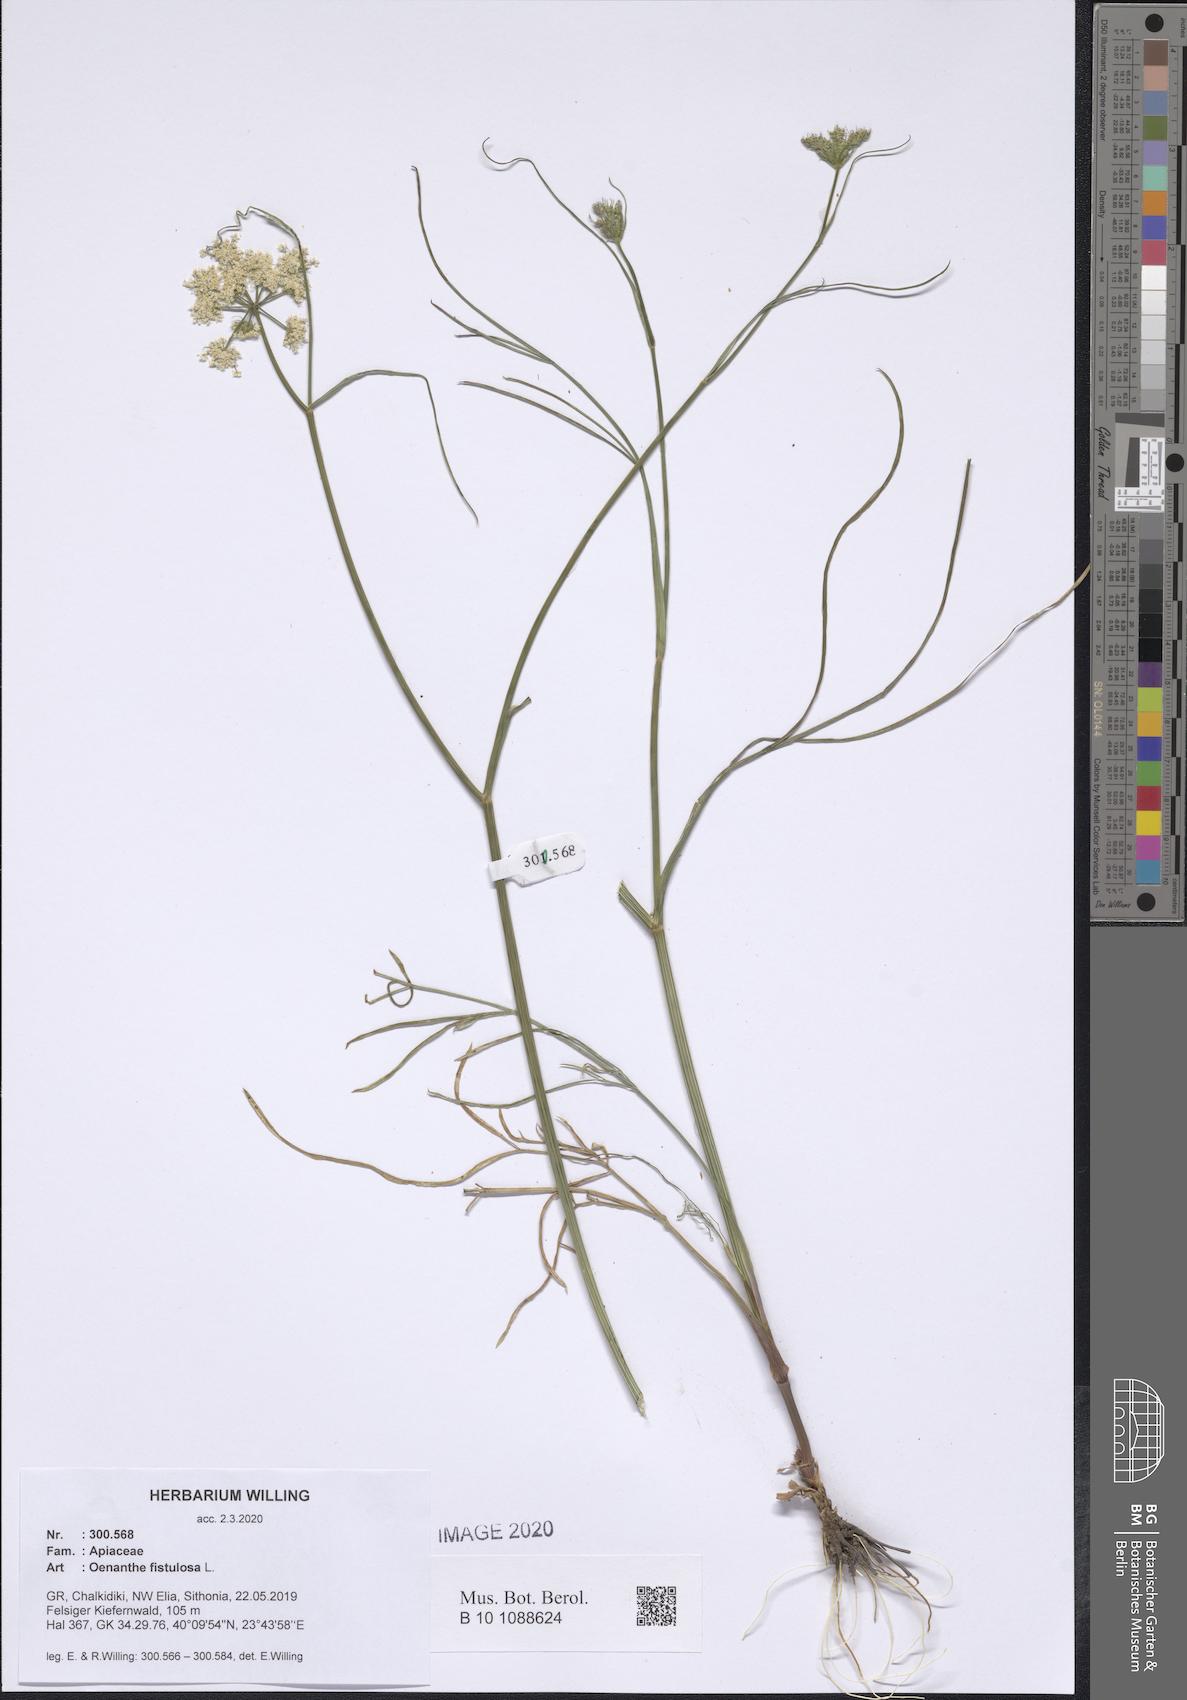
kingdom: Plantae
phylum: Tracheophyta
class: Magnoliopsida
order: Apiales
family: Apiaceae
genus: Oenanthe
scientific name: Oenanthe fistulosa
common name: Tubular water-dropwort
